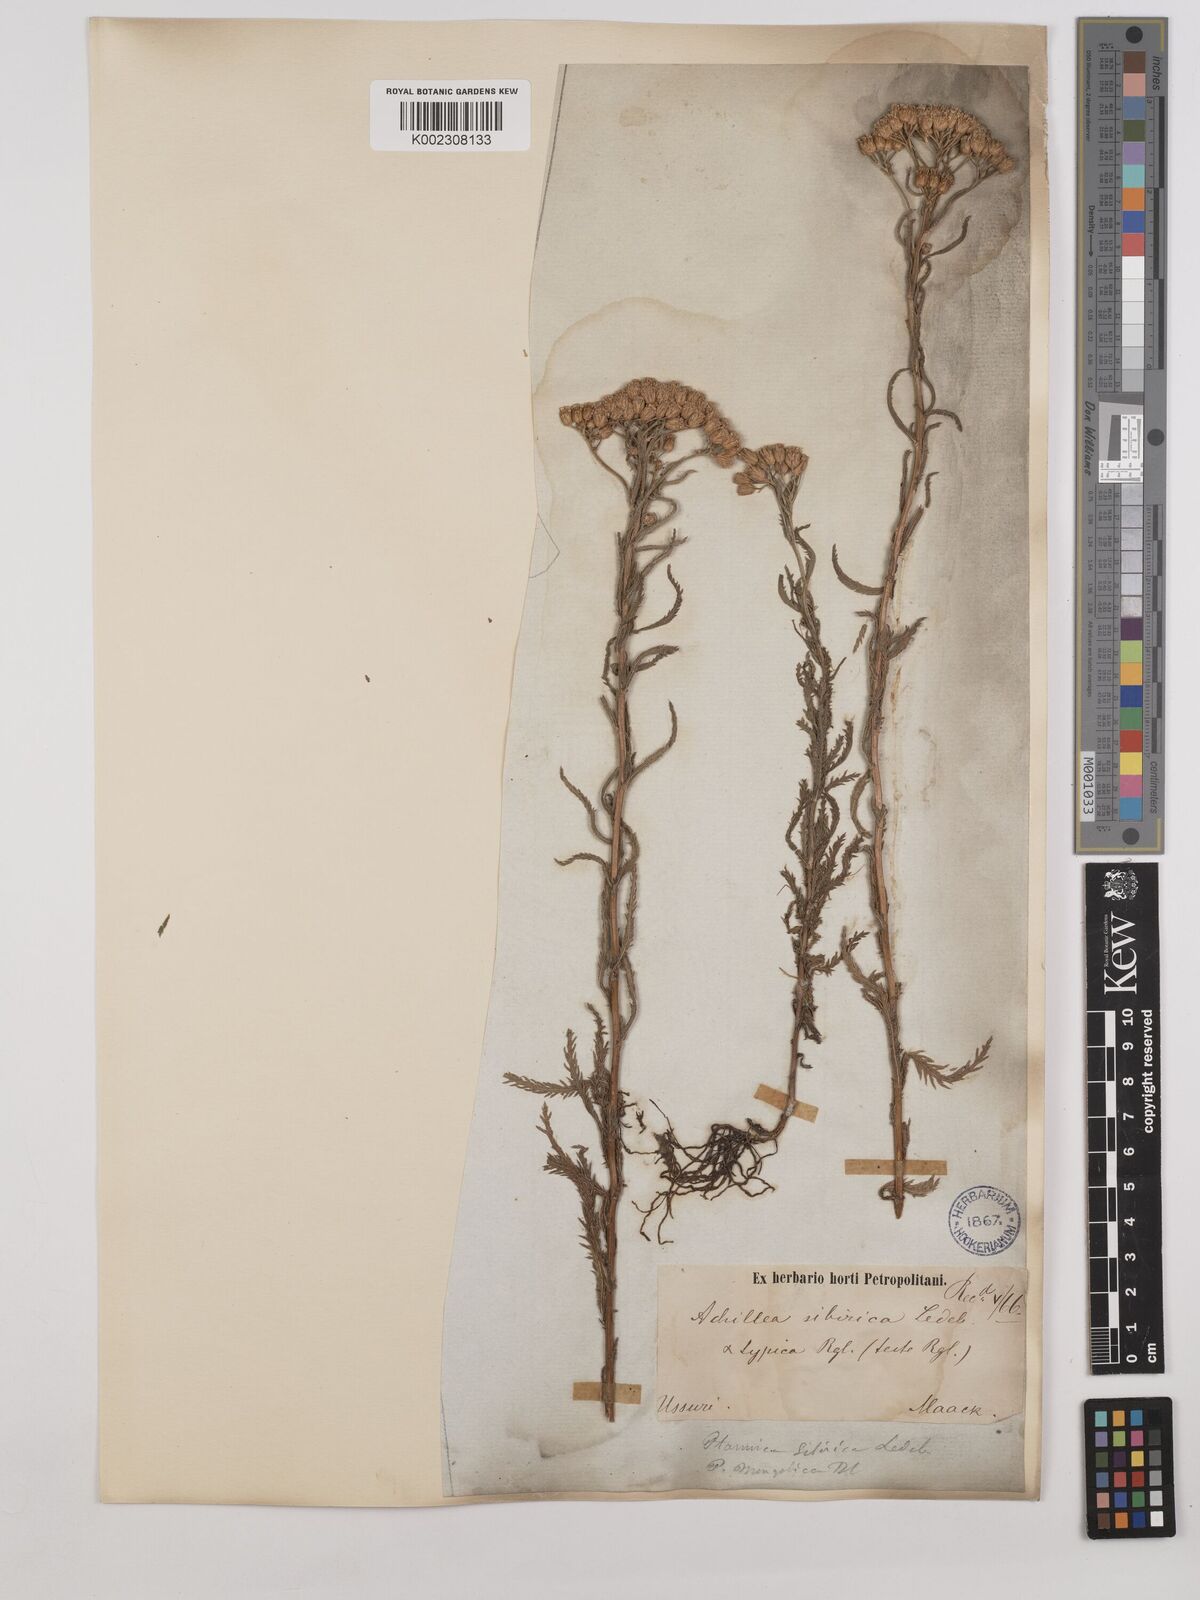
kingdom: Plantae
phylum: Tracheophyta
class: Magnoliopsida
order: Asterales
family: Asteraceae
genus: Achillea
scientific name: Achillea alpina
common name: Siberian yarrow
